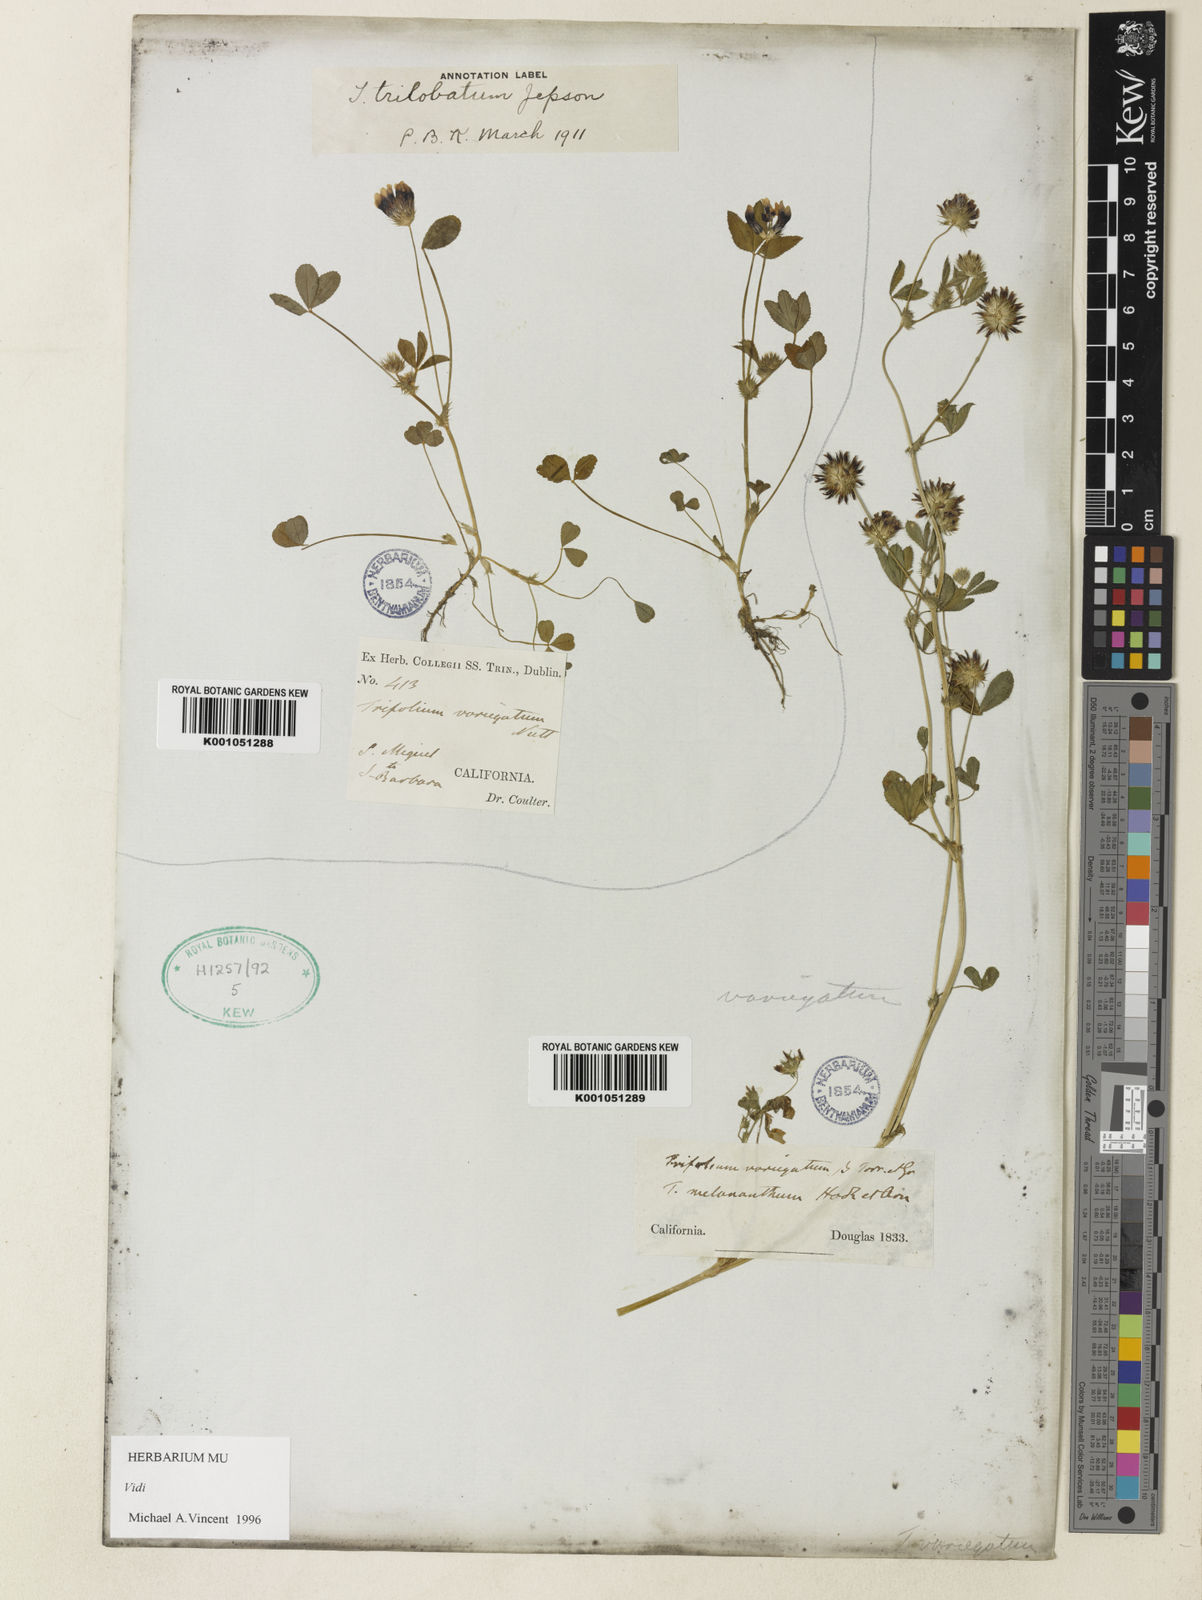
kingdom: Plantae
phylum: Tracheophyta
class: Magnoliopsida
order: Fabales
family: Fabaceae
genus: Trifolium
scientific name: Trifolium variegatum
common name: Whitetip clover
